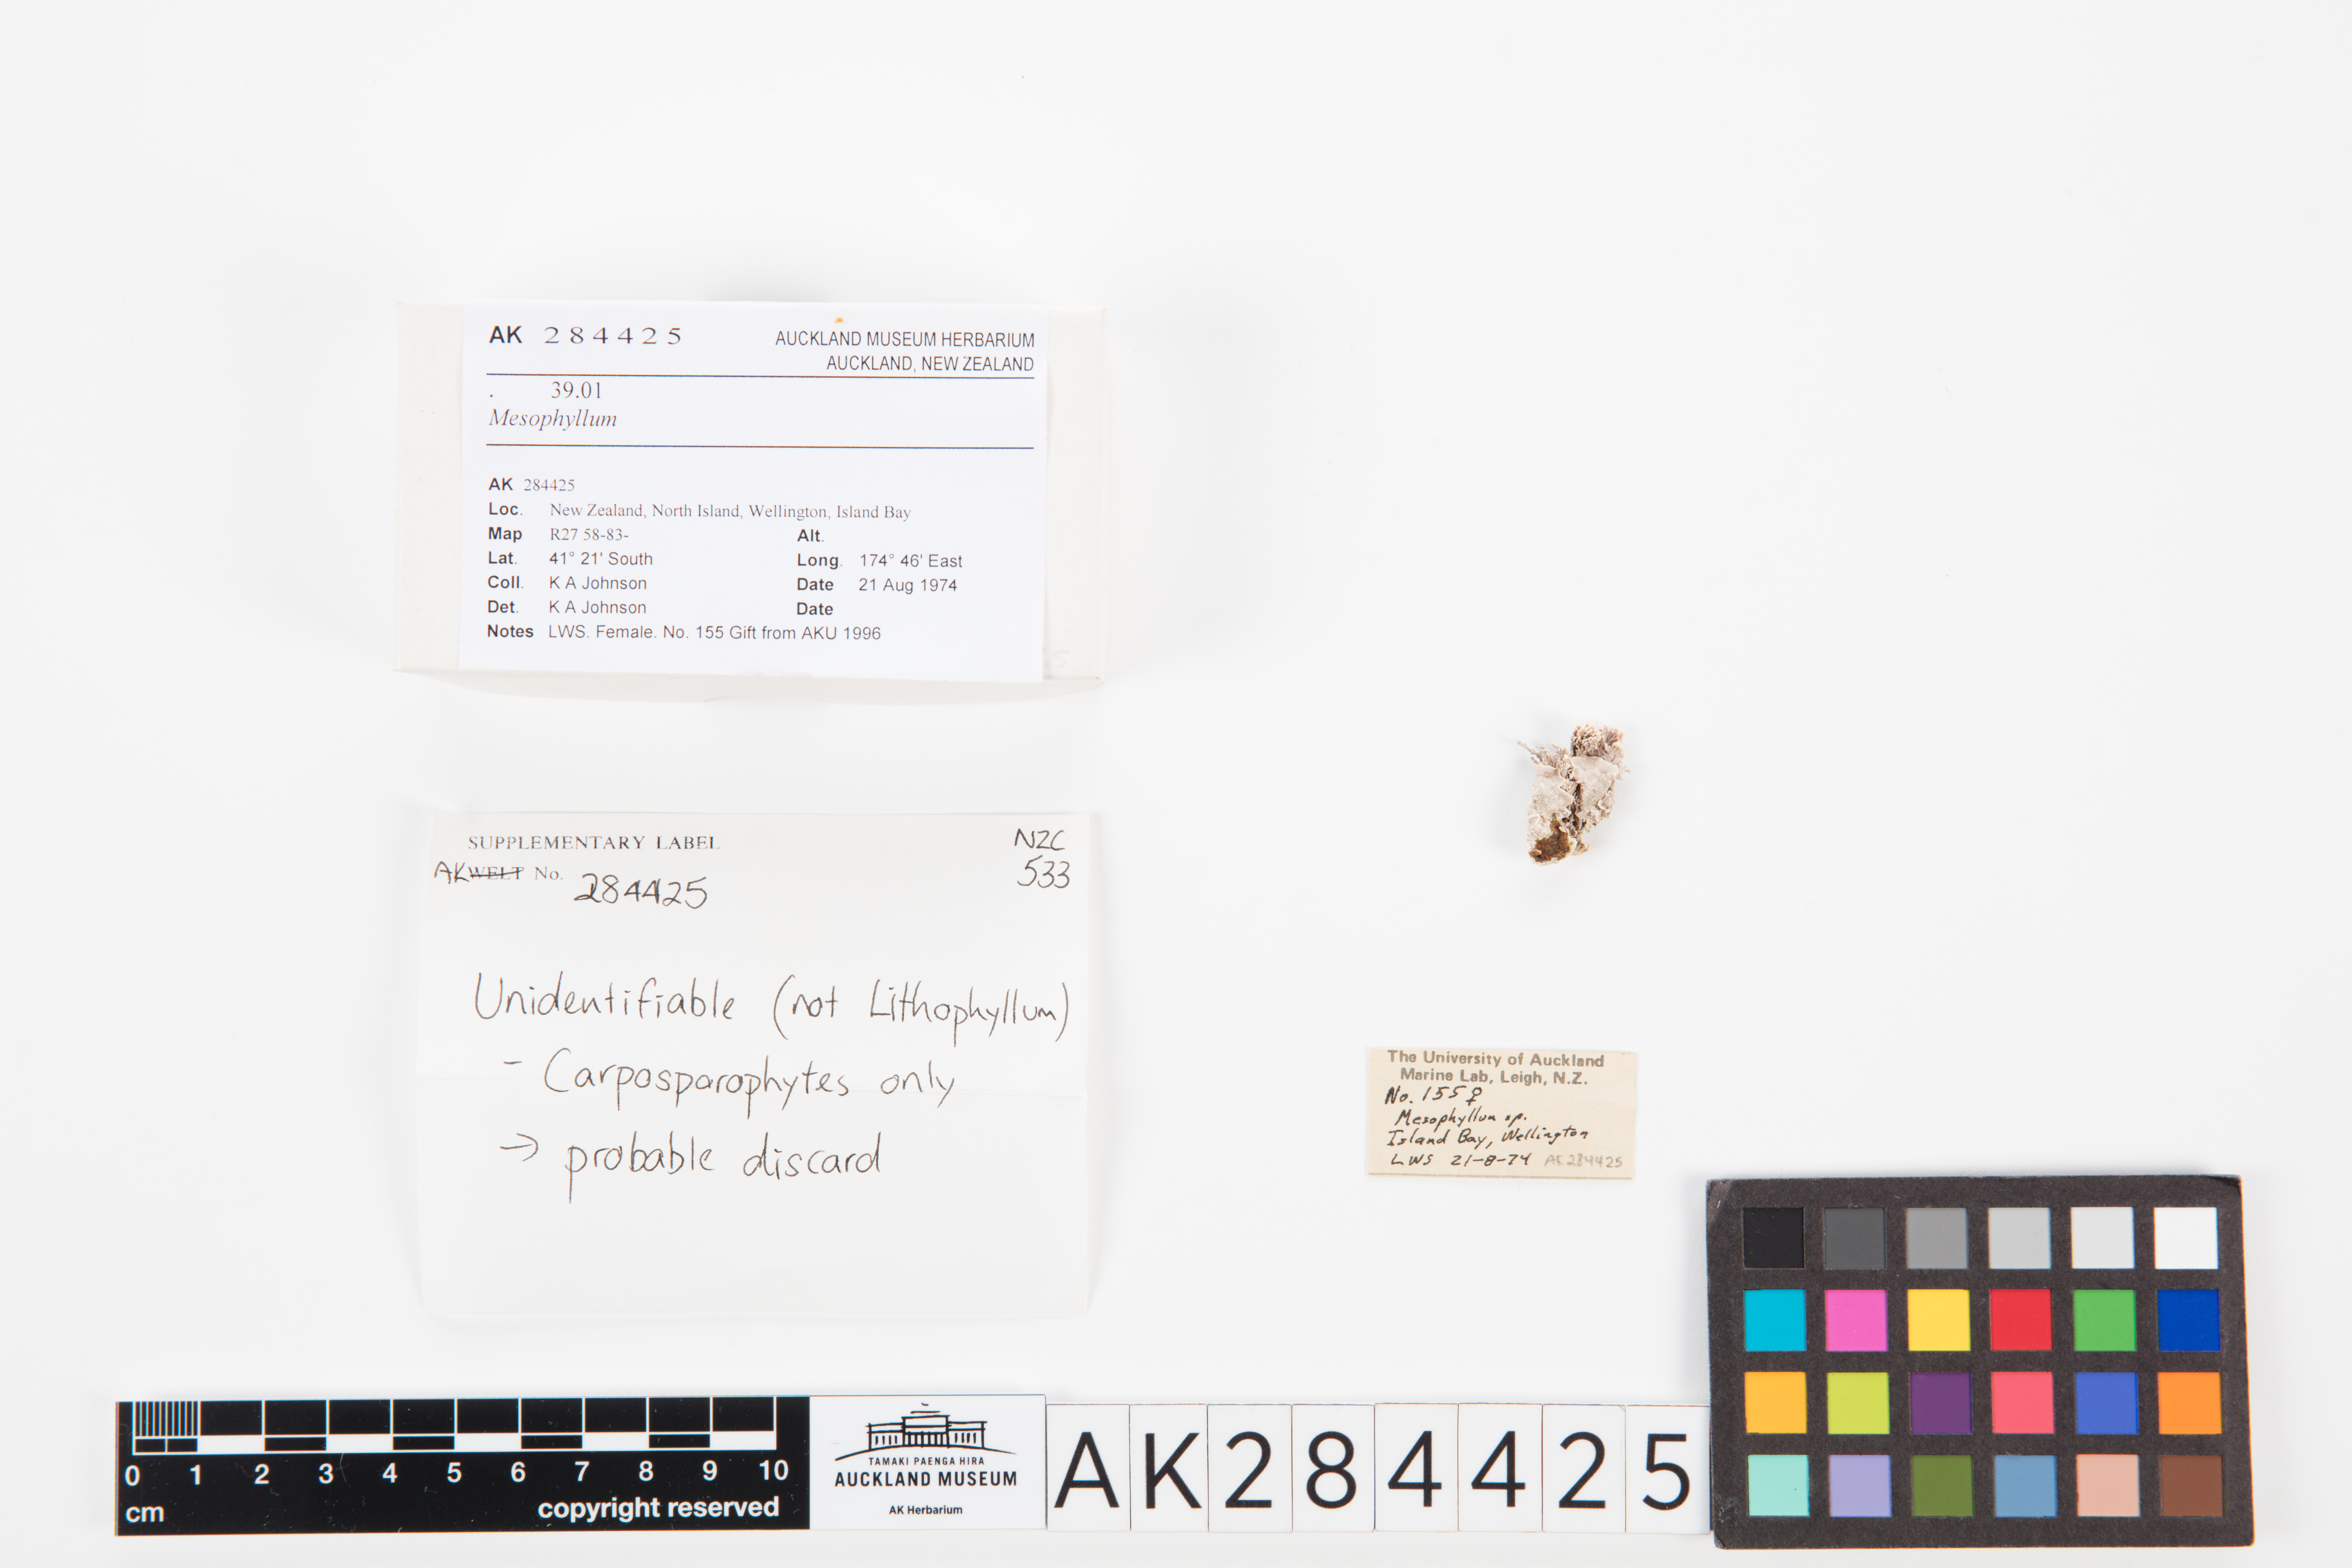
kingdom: Plantae
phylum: Rhodophyta
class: Florideophyceae
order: Corallinales
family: Mesophyllumaceae
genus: Mesophyllum
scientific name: Mesophyllum
